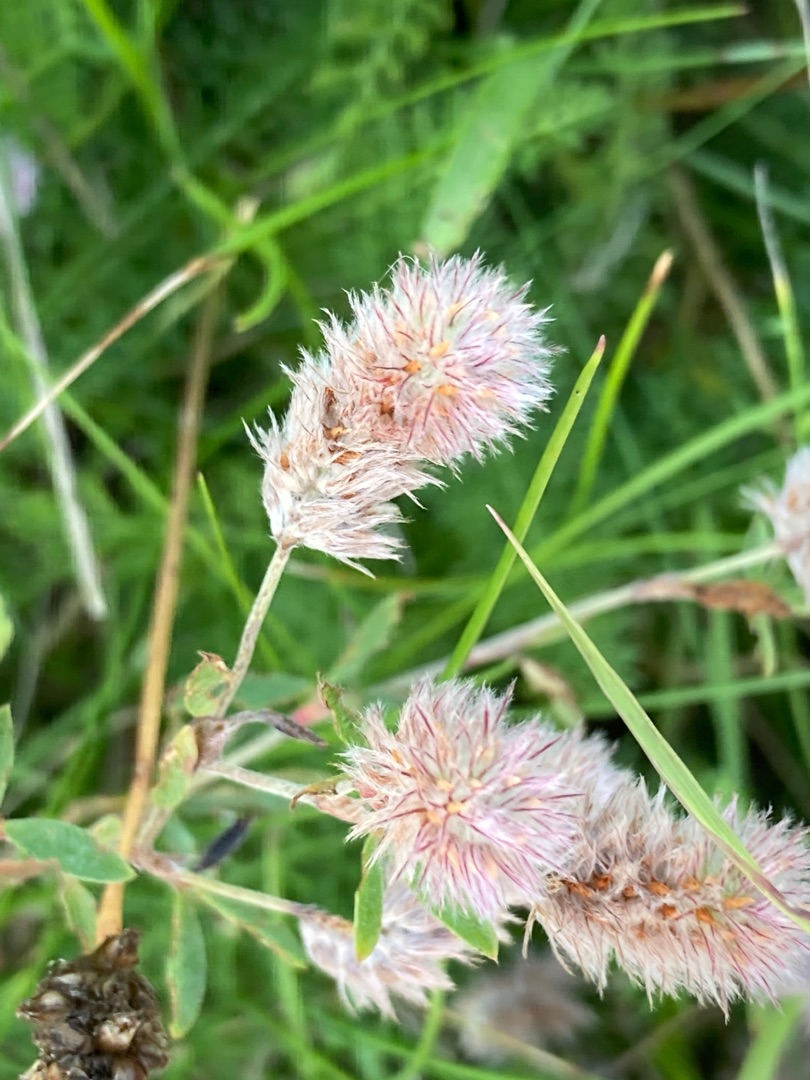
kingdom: Plantae
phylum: Tracheophyta
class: Magnoliopsida
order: Fabales
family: Fabaceae
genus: Trifolium
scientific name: Trifolium arvense
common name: Hare-kløver
